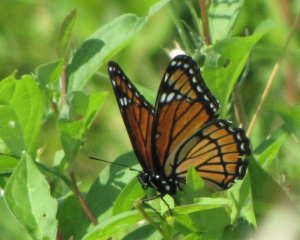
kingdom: Animalia
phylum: Arthropoda
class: Insecta
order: Lepidoptera
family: Nymphalidae
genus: Limenitis
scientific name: Limenitis archippus
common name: Viceroy
